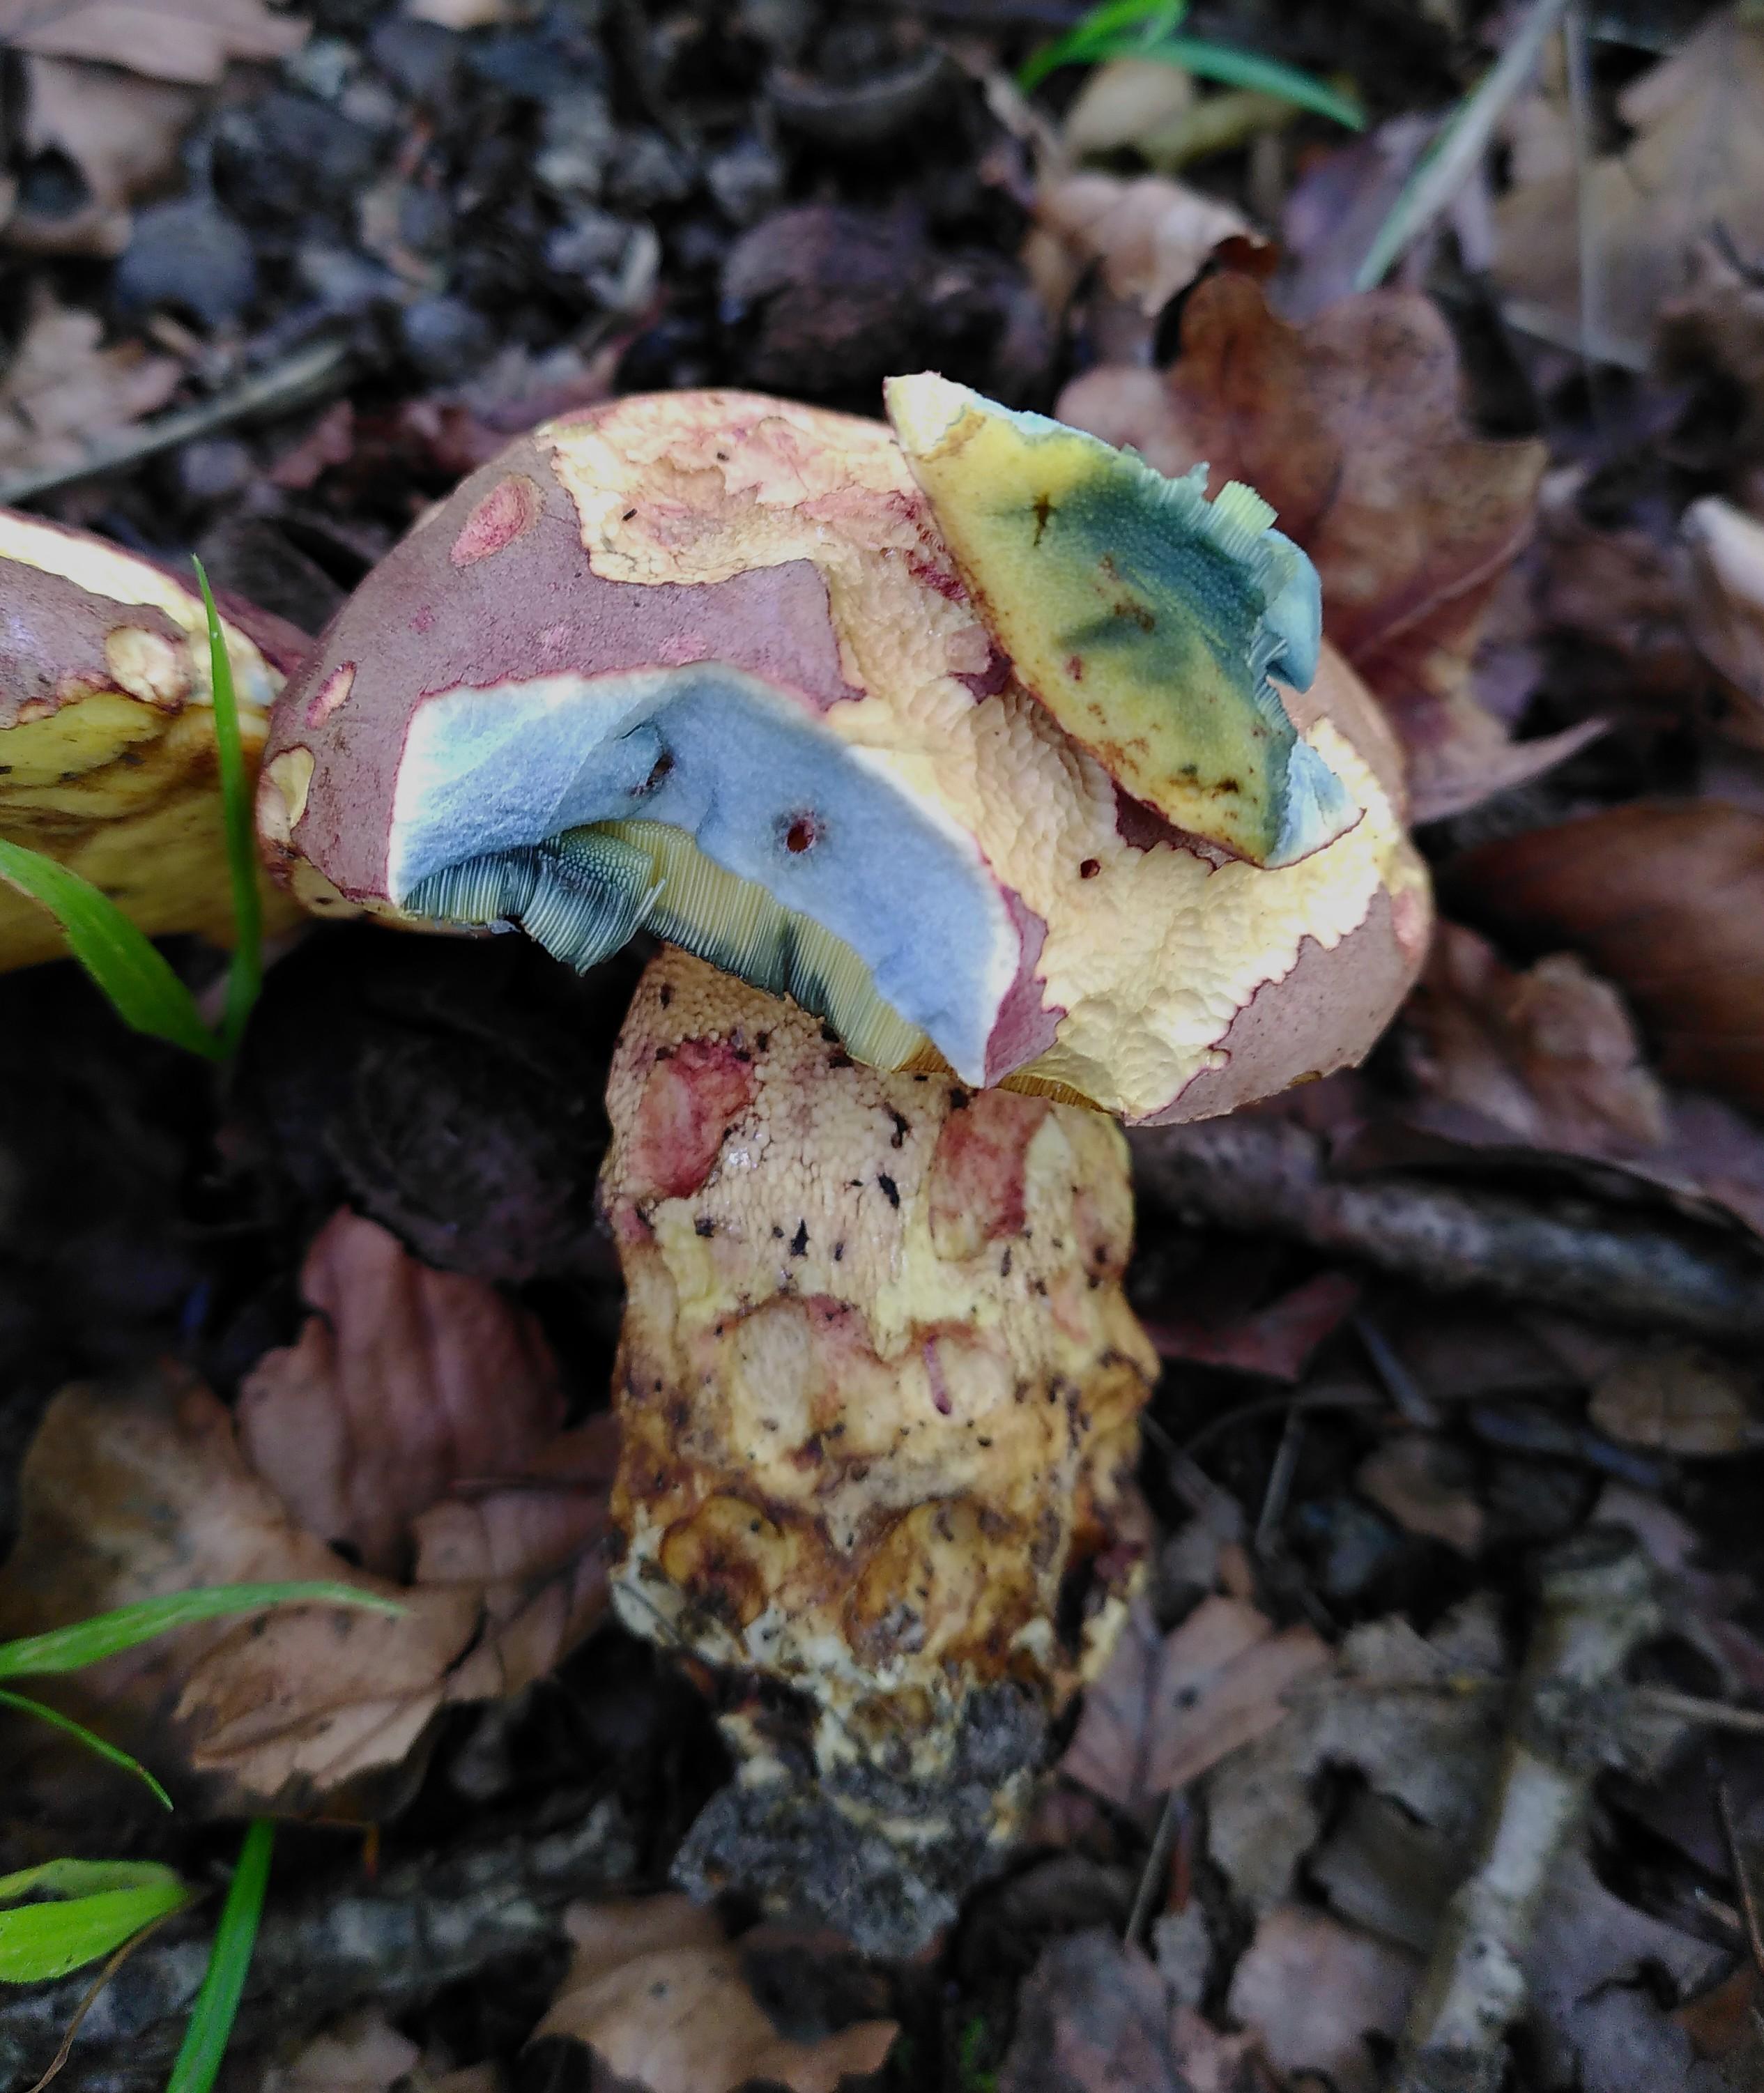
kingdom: Fungi
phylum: Basidiomycota
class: Agaricomycetes
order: Boletales
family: Boletaceae
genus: Butyriboletus
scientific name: Butyriboletus fuscoroseus
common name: brunrosa rørhat
